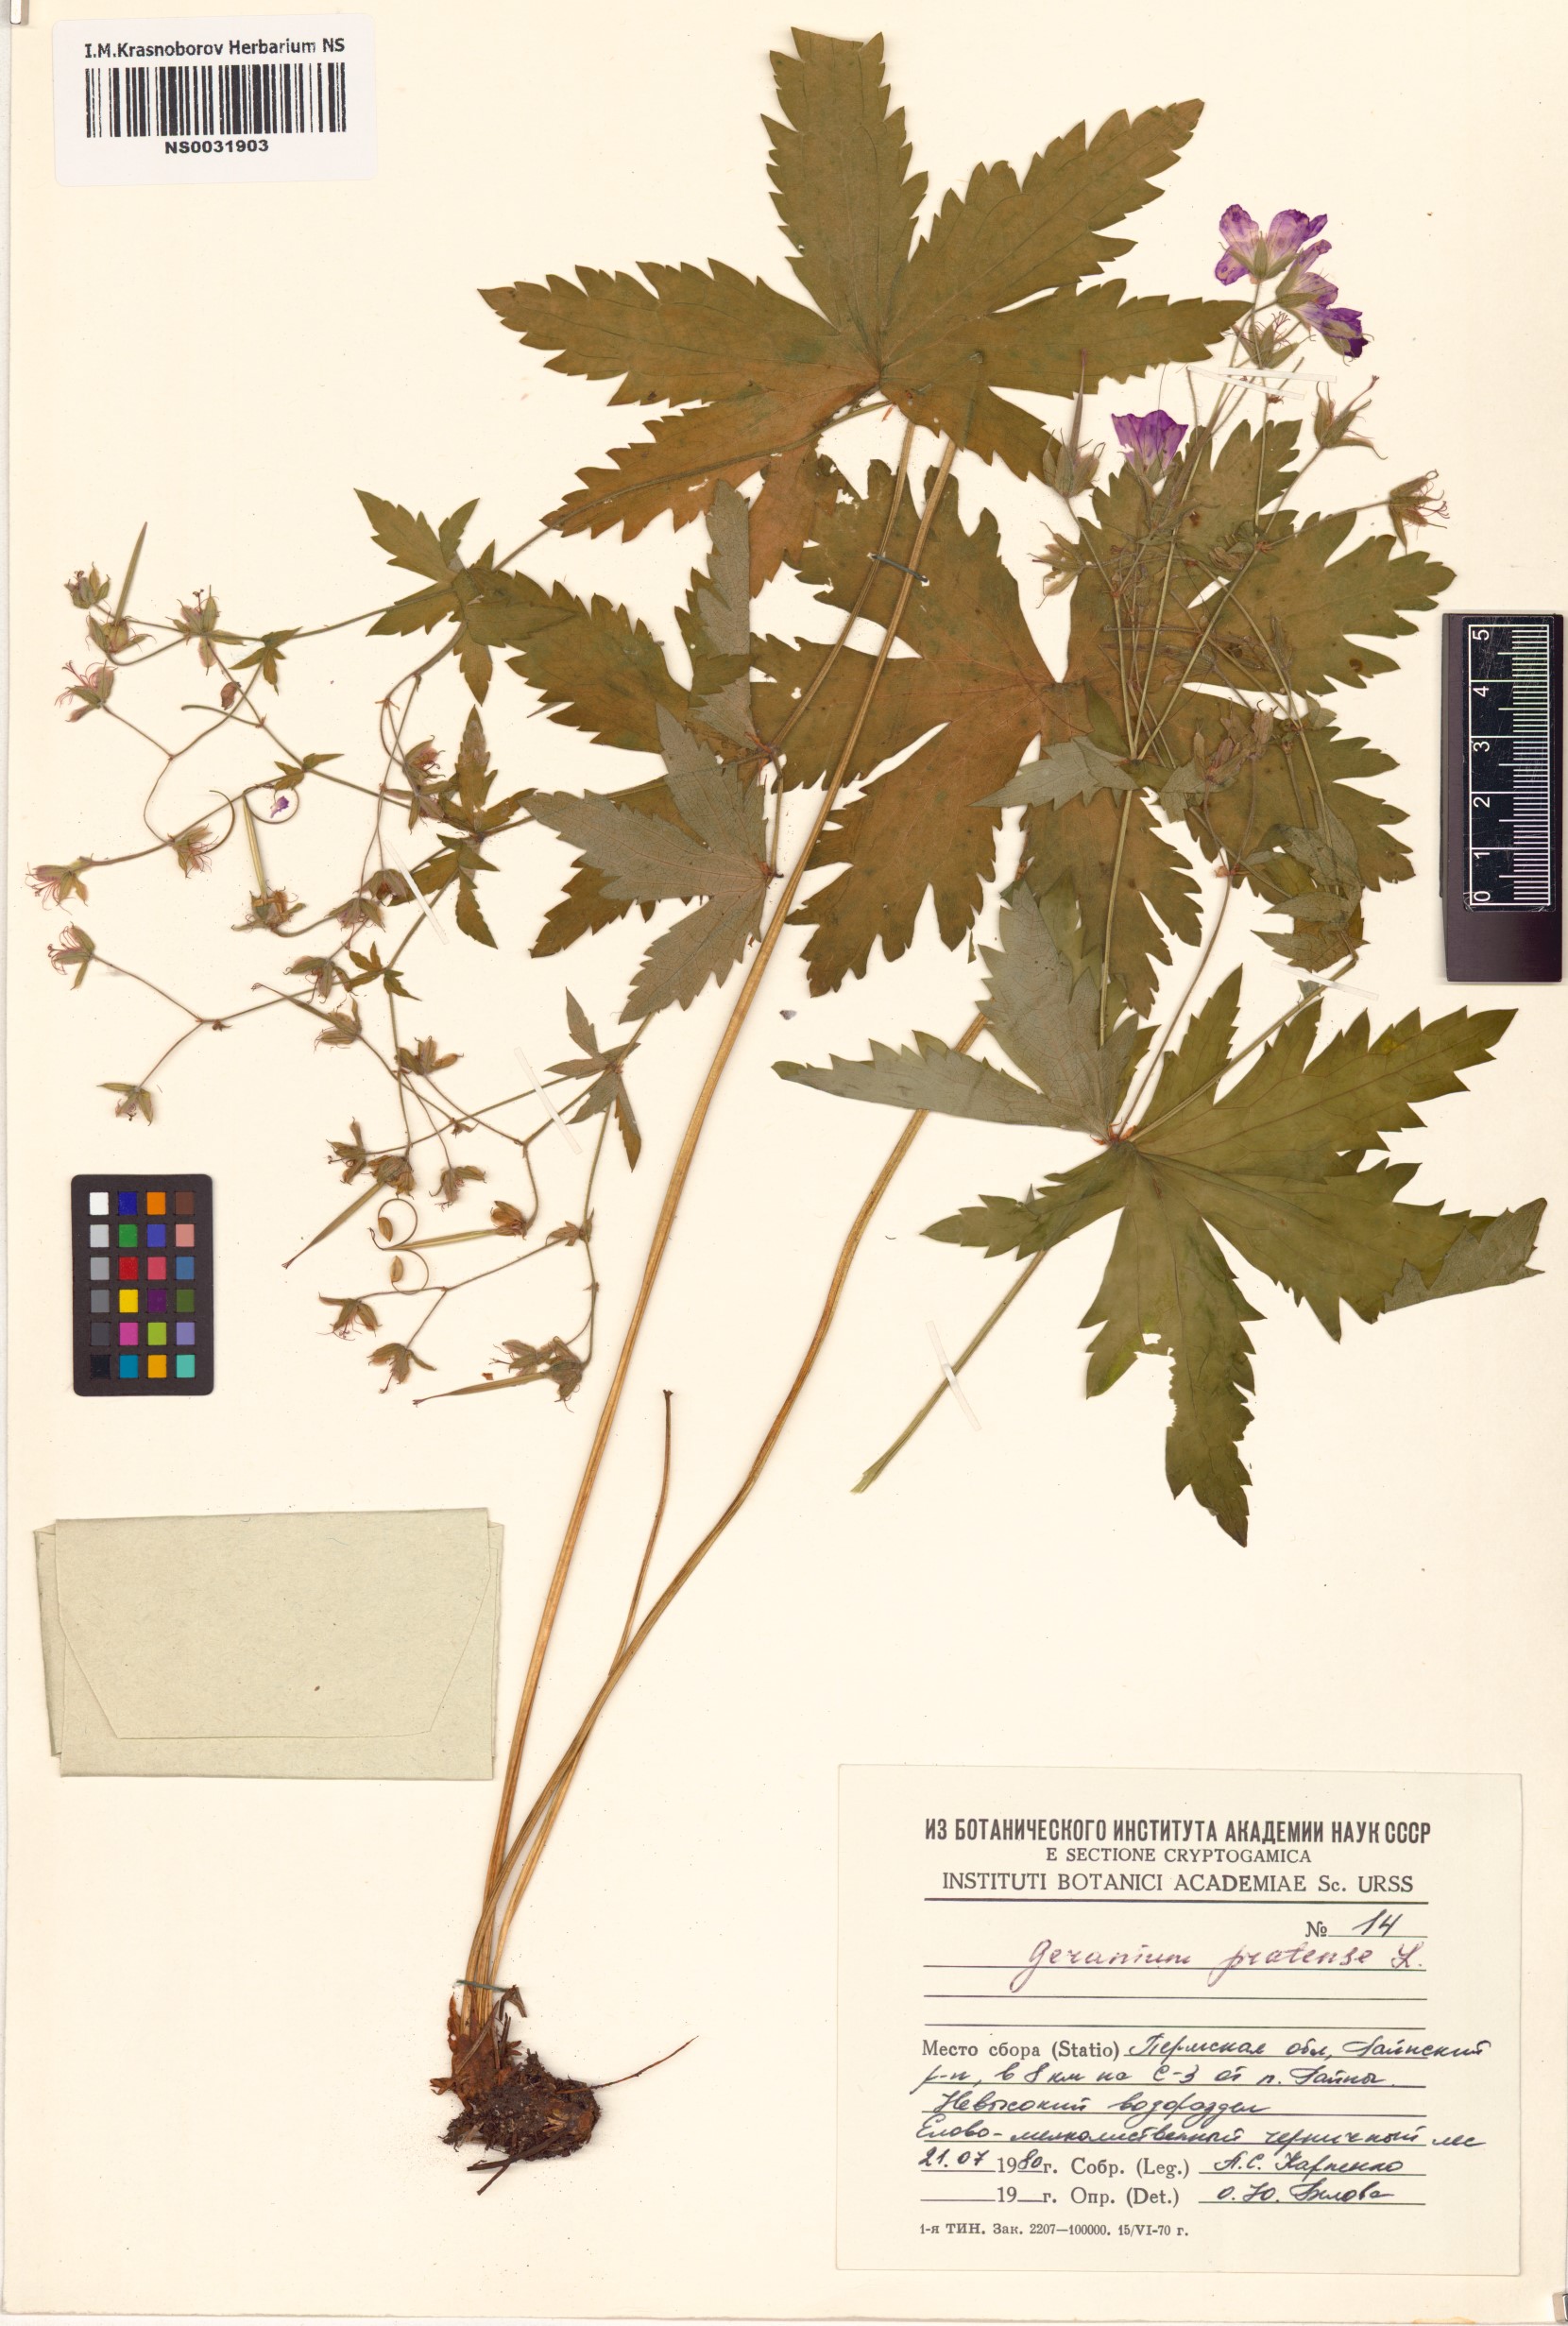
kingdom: Plantae
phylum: Tracheophyta
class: Magnoliopsida
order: Geraniales
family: Geraniaceae
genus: Geranium
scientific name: Geranium pratense
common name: Meadow crane's-bill
